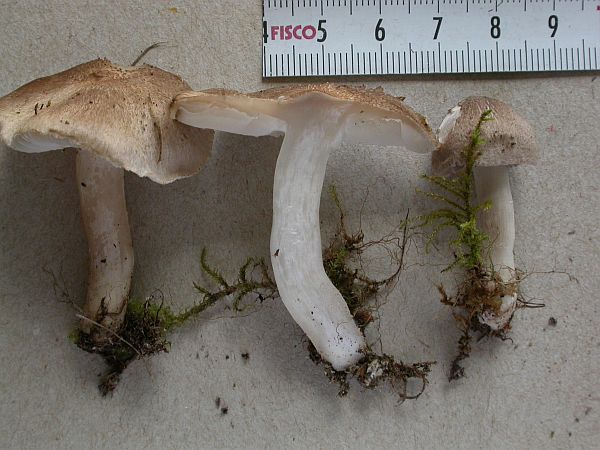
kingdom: Fungi
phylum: Basidiomycota
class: Agaricomycetes
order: Agaricales
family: Tricholomataceae
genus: Tricholoma
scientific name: Tricholoma argyraceum
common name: spids ridderhat
